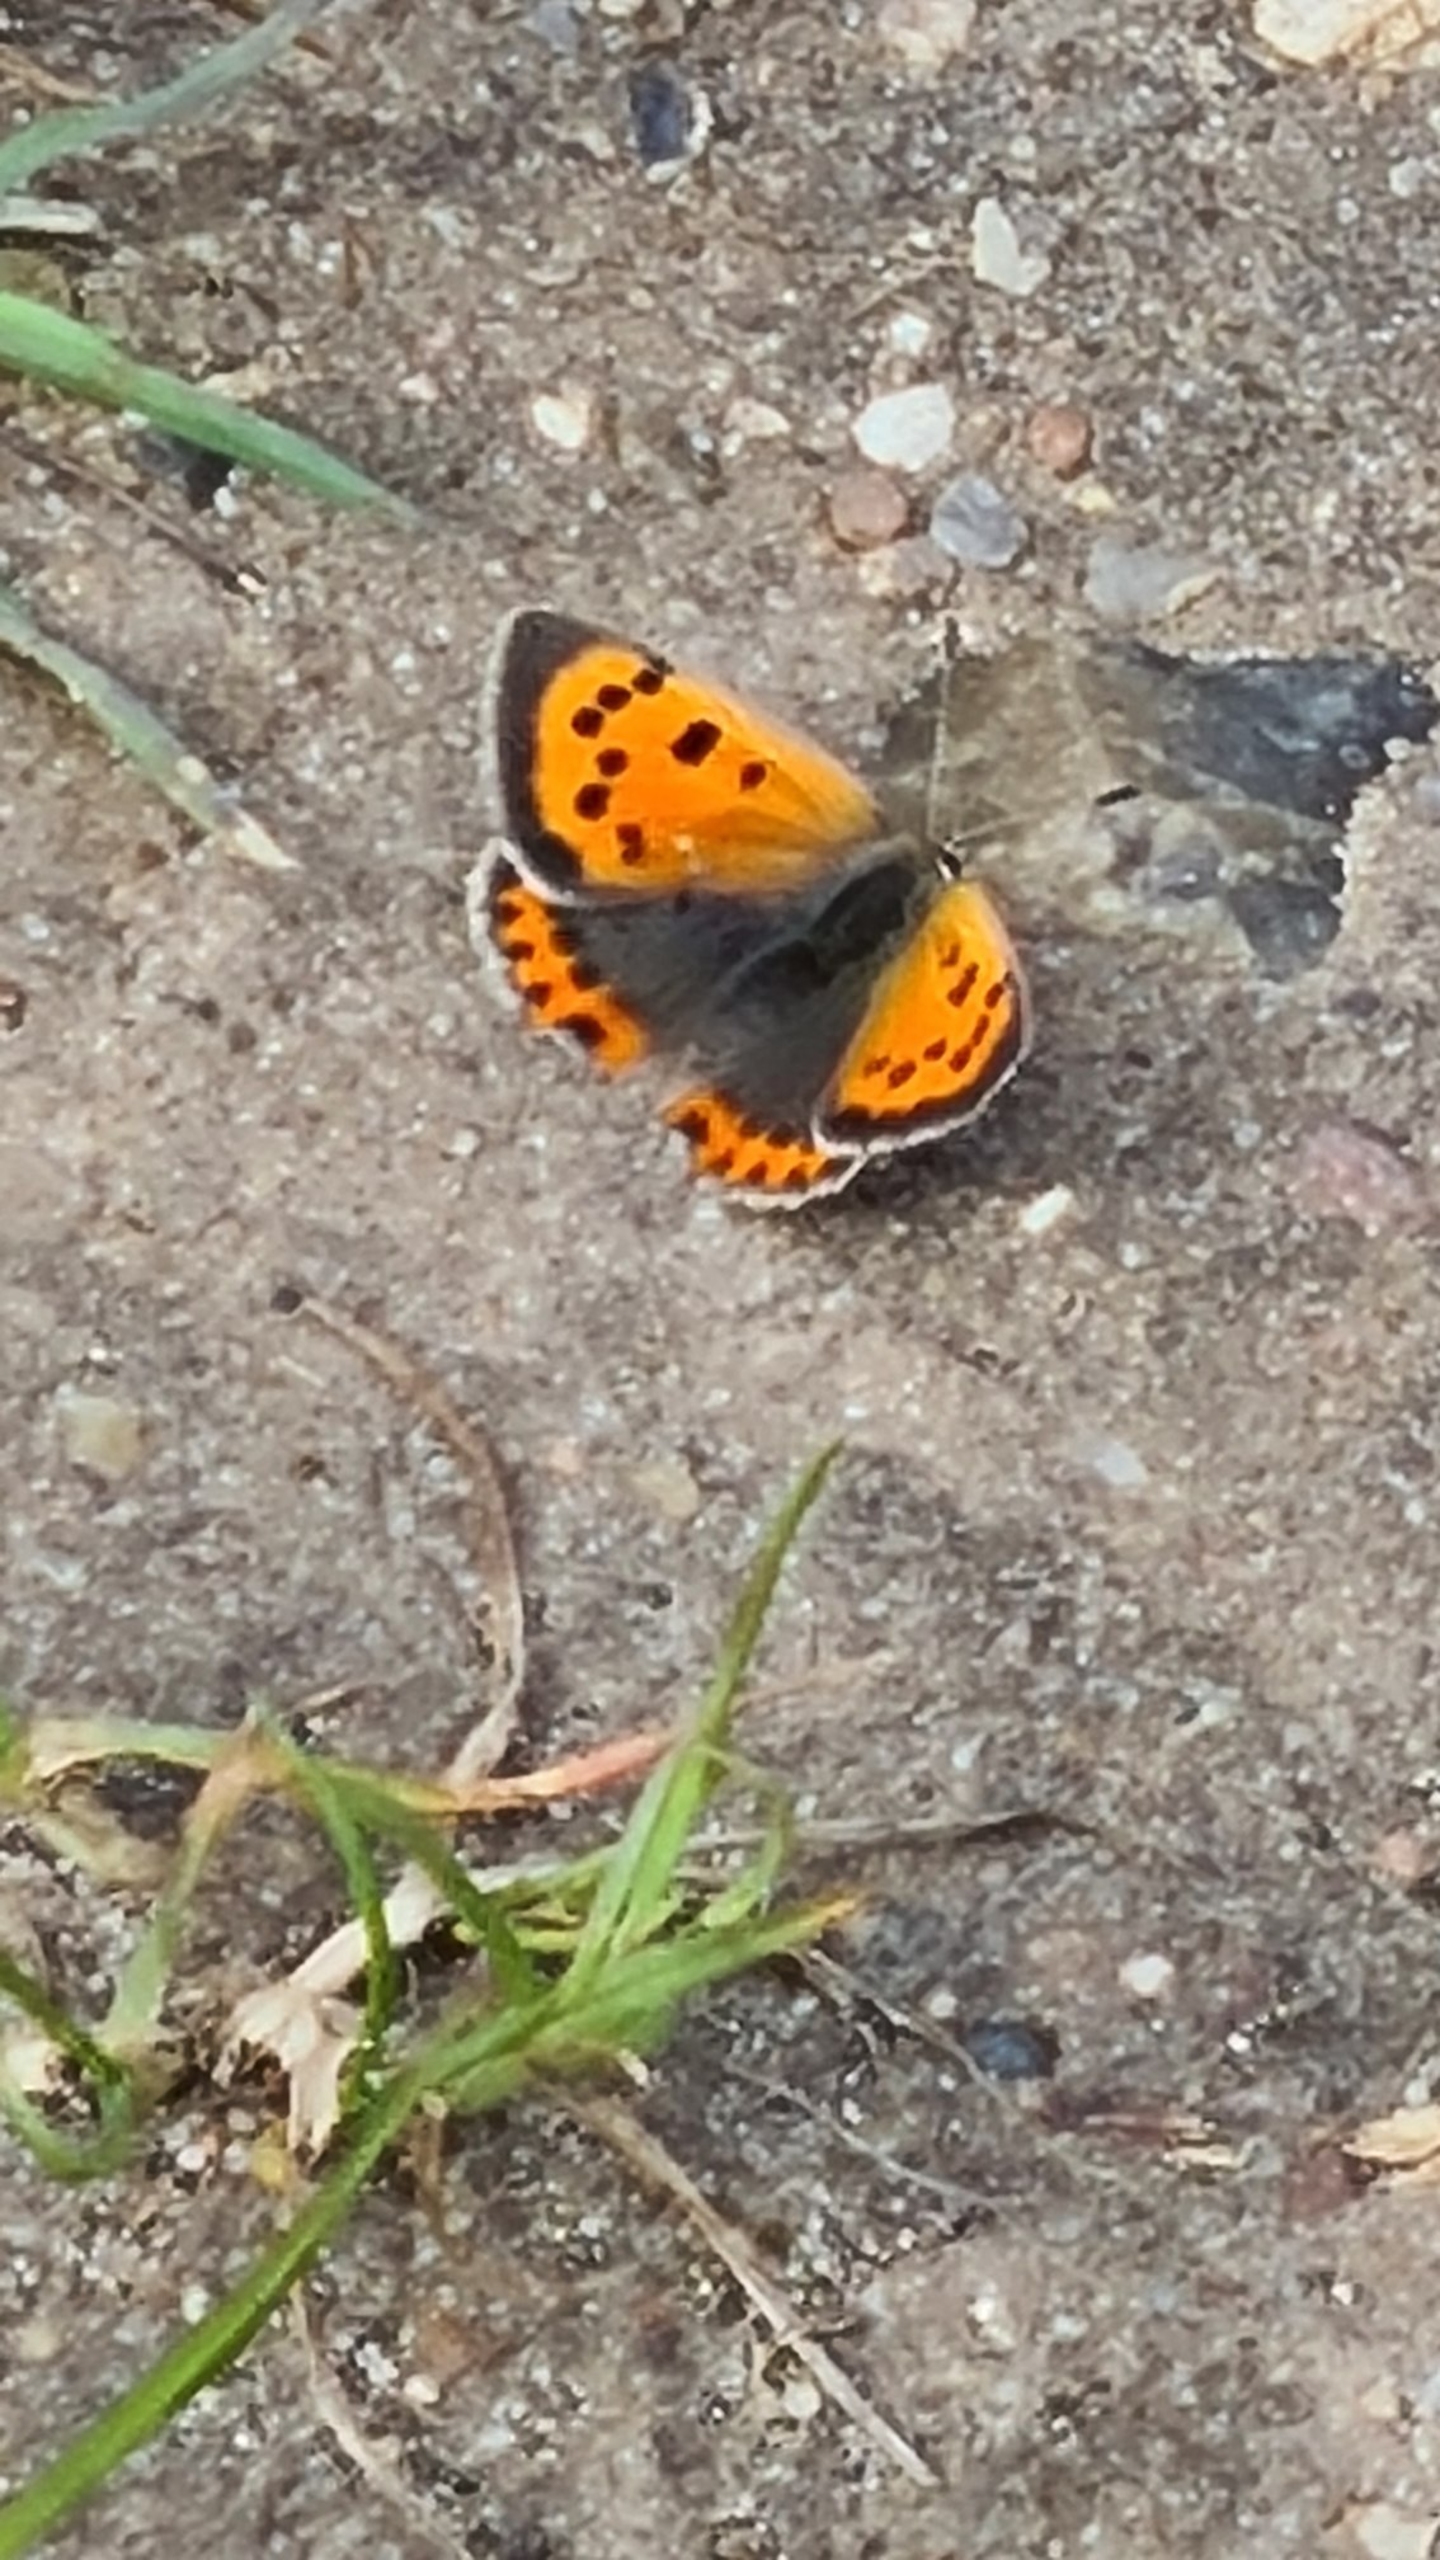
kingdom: Animalia
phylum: Arthropoda
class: Insecta
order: Lepidoptera
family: Lycaenidae
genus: Lycaena
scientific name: Lycaena phlaeas
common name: Lille ildfugl
